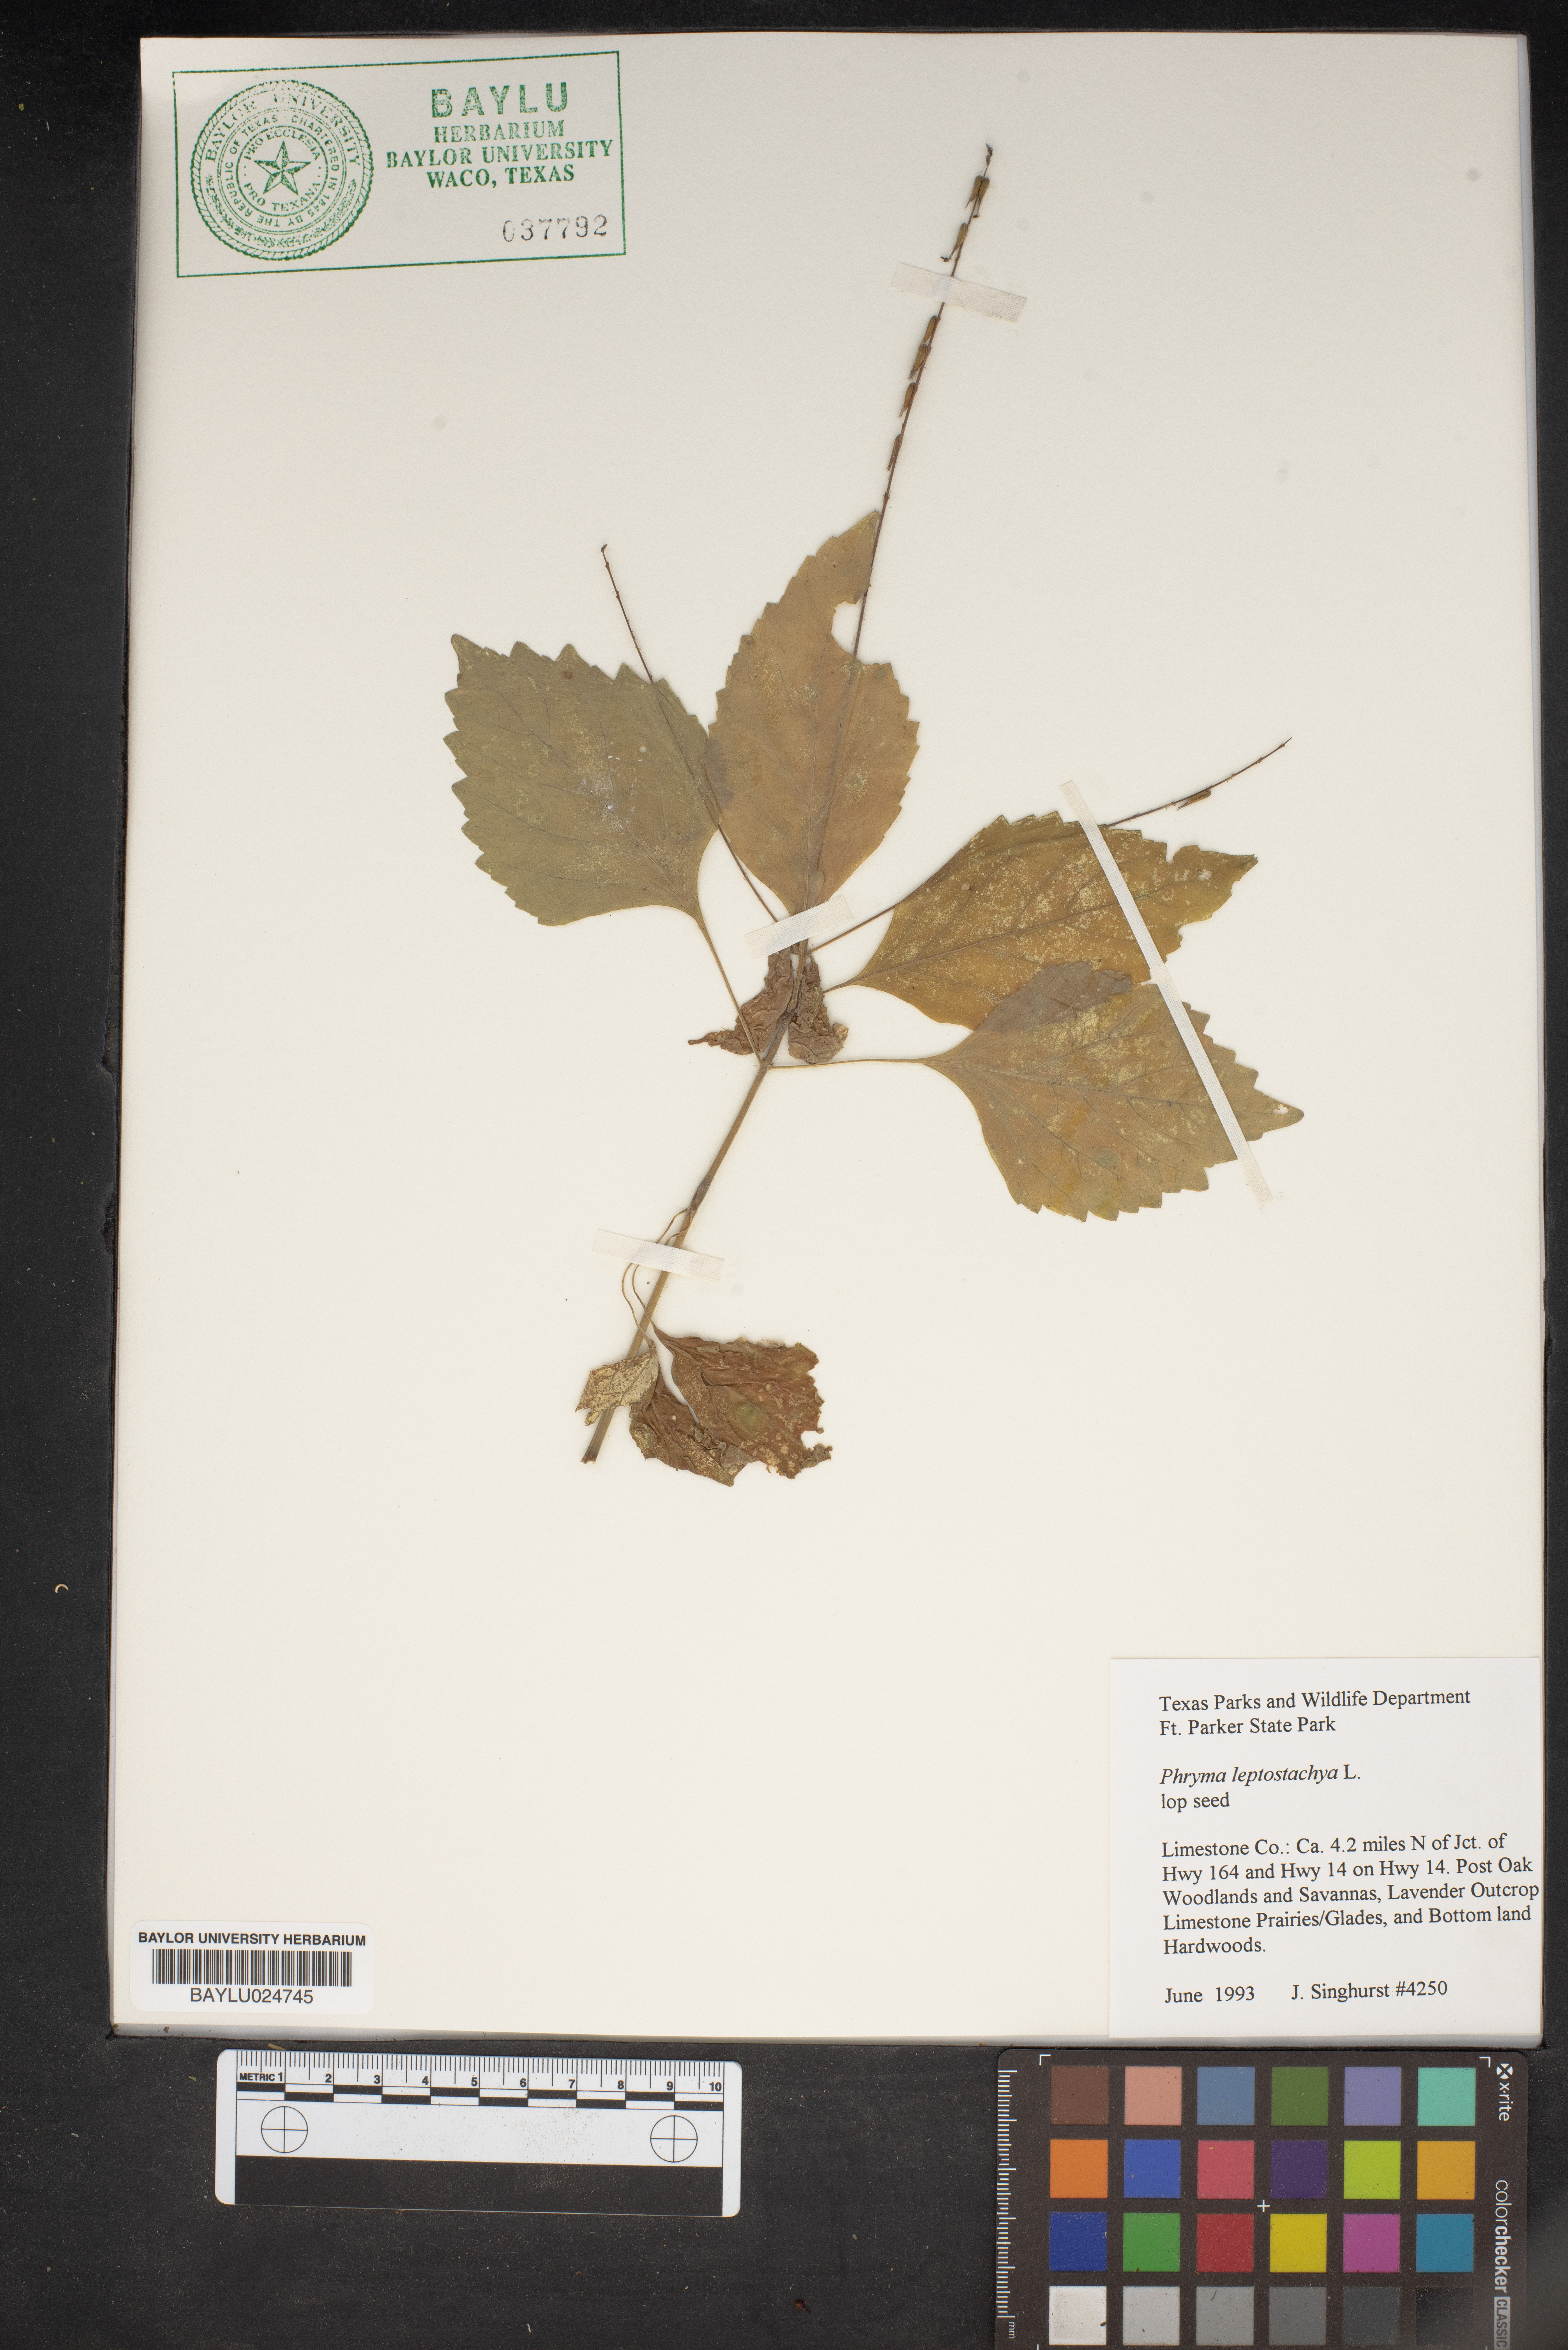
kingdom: Plantae
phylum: Tracheophyta
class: Magnoliopsida
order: Lamiales
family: Phrymaceae
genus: Phryma
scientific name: Phryma leptostachya
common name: American lopseed
